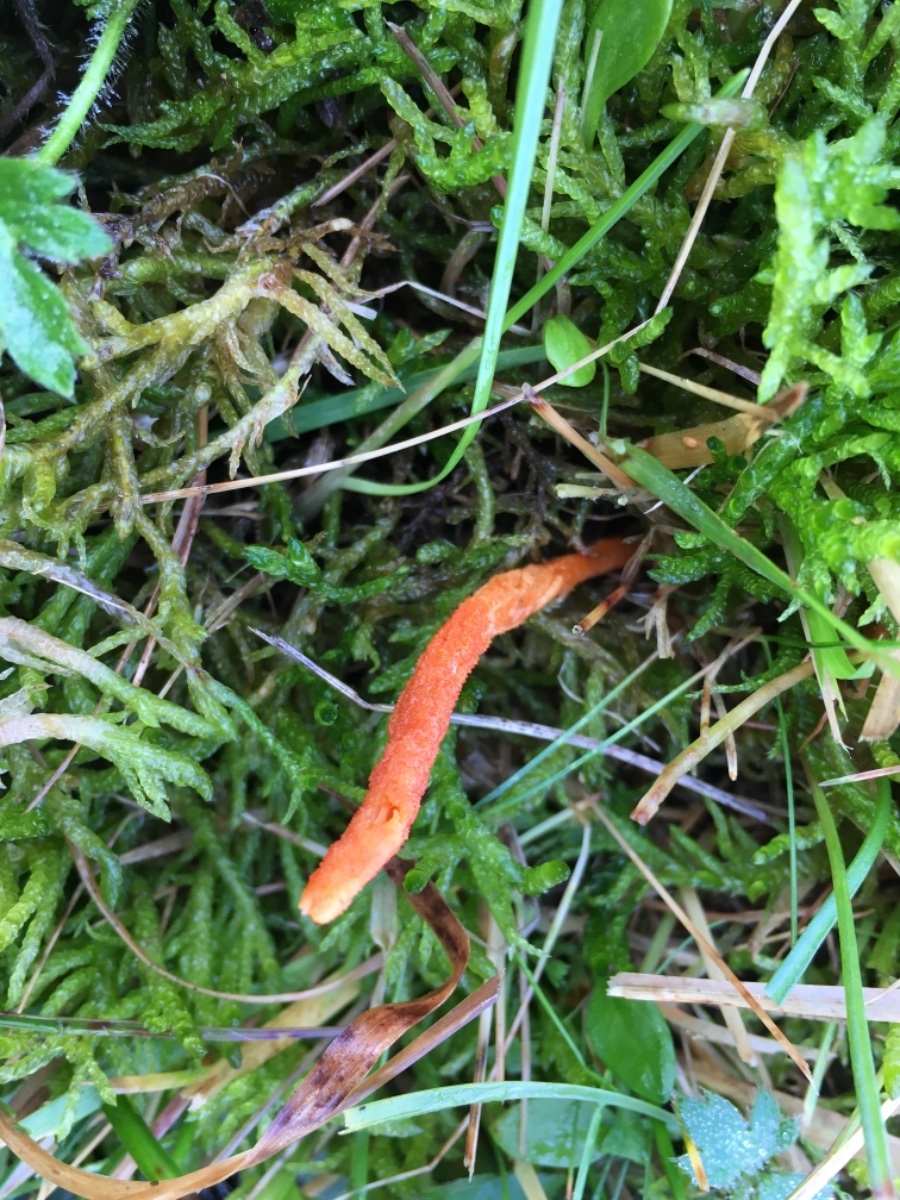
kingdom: Fungi
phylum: Ascomycota
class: Sordariomycetes
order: Hypocreales
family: Cordycipitaceae
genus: Cordyceps
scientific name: Cordyceps militaris
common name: puppe-snyltekølle
